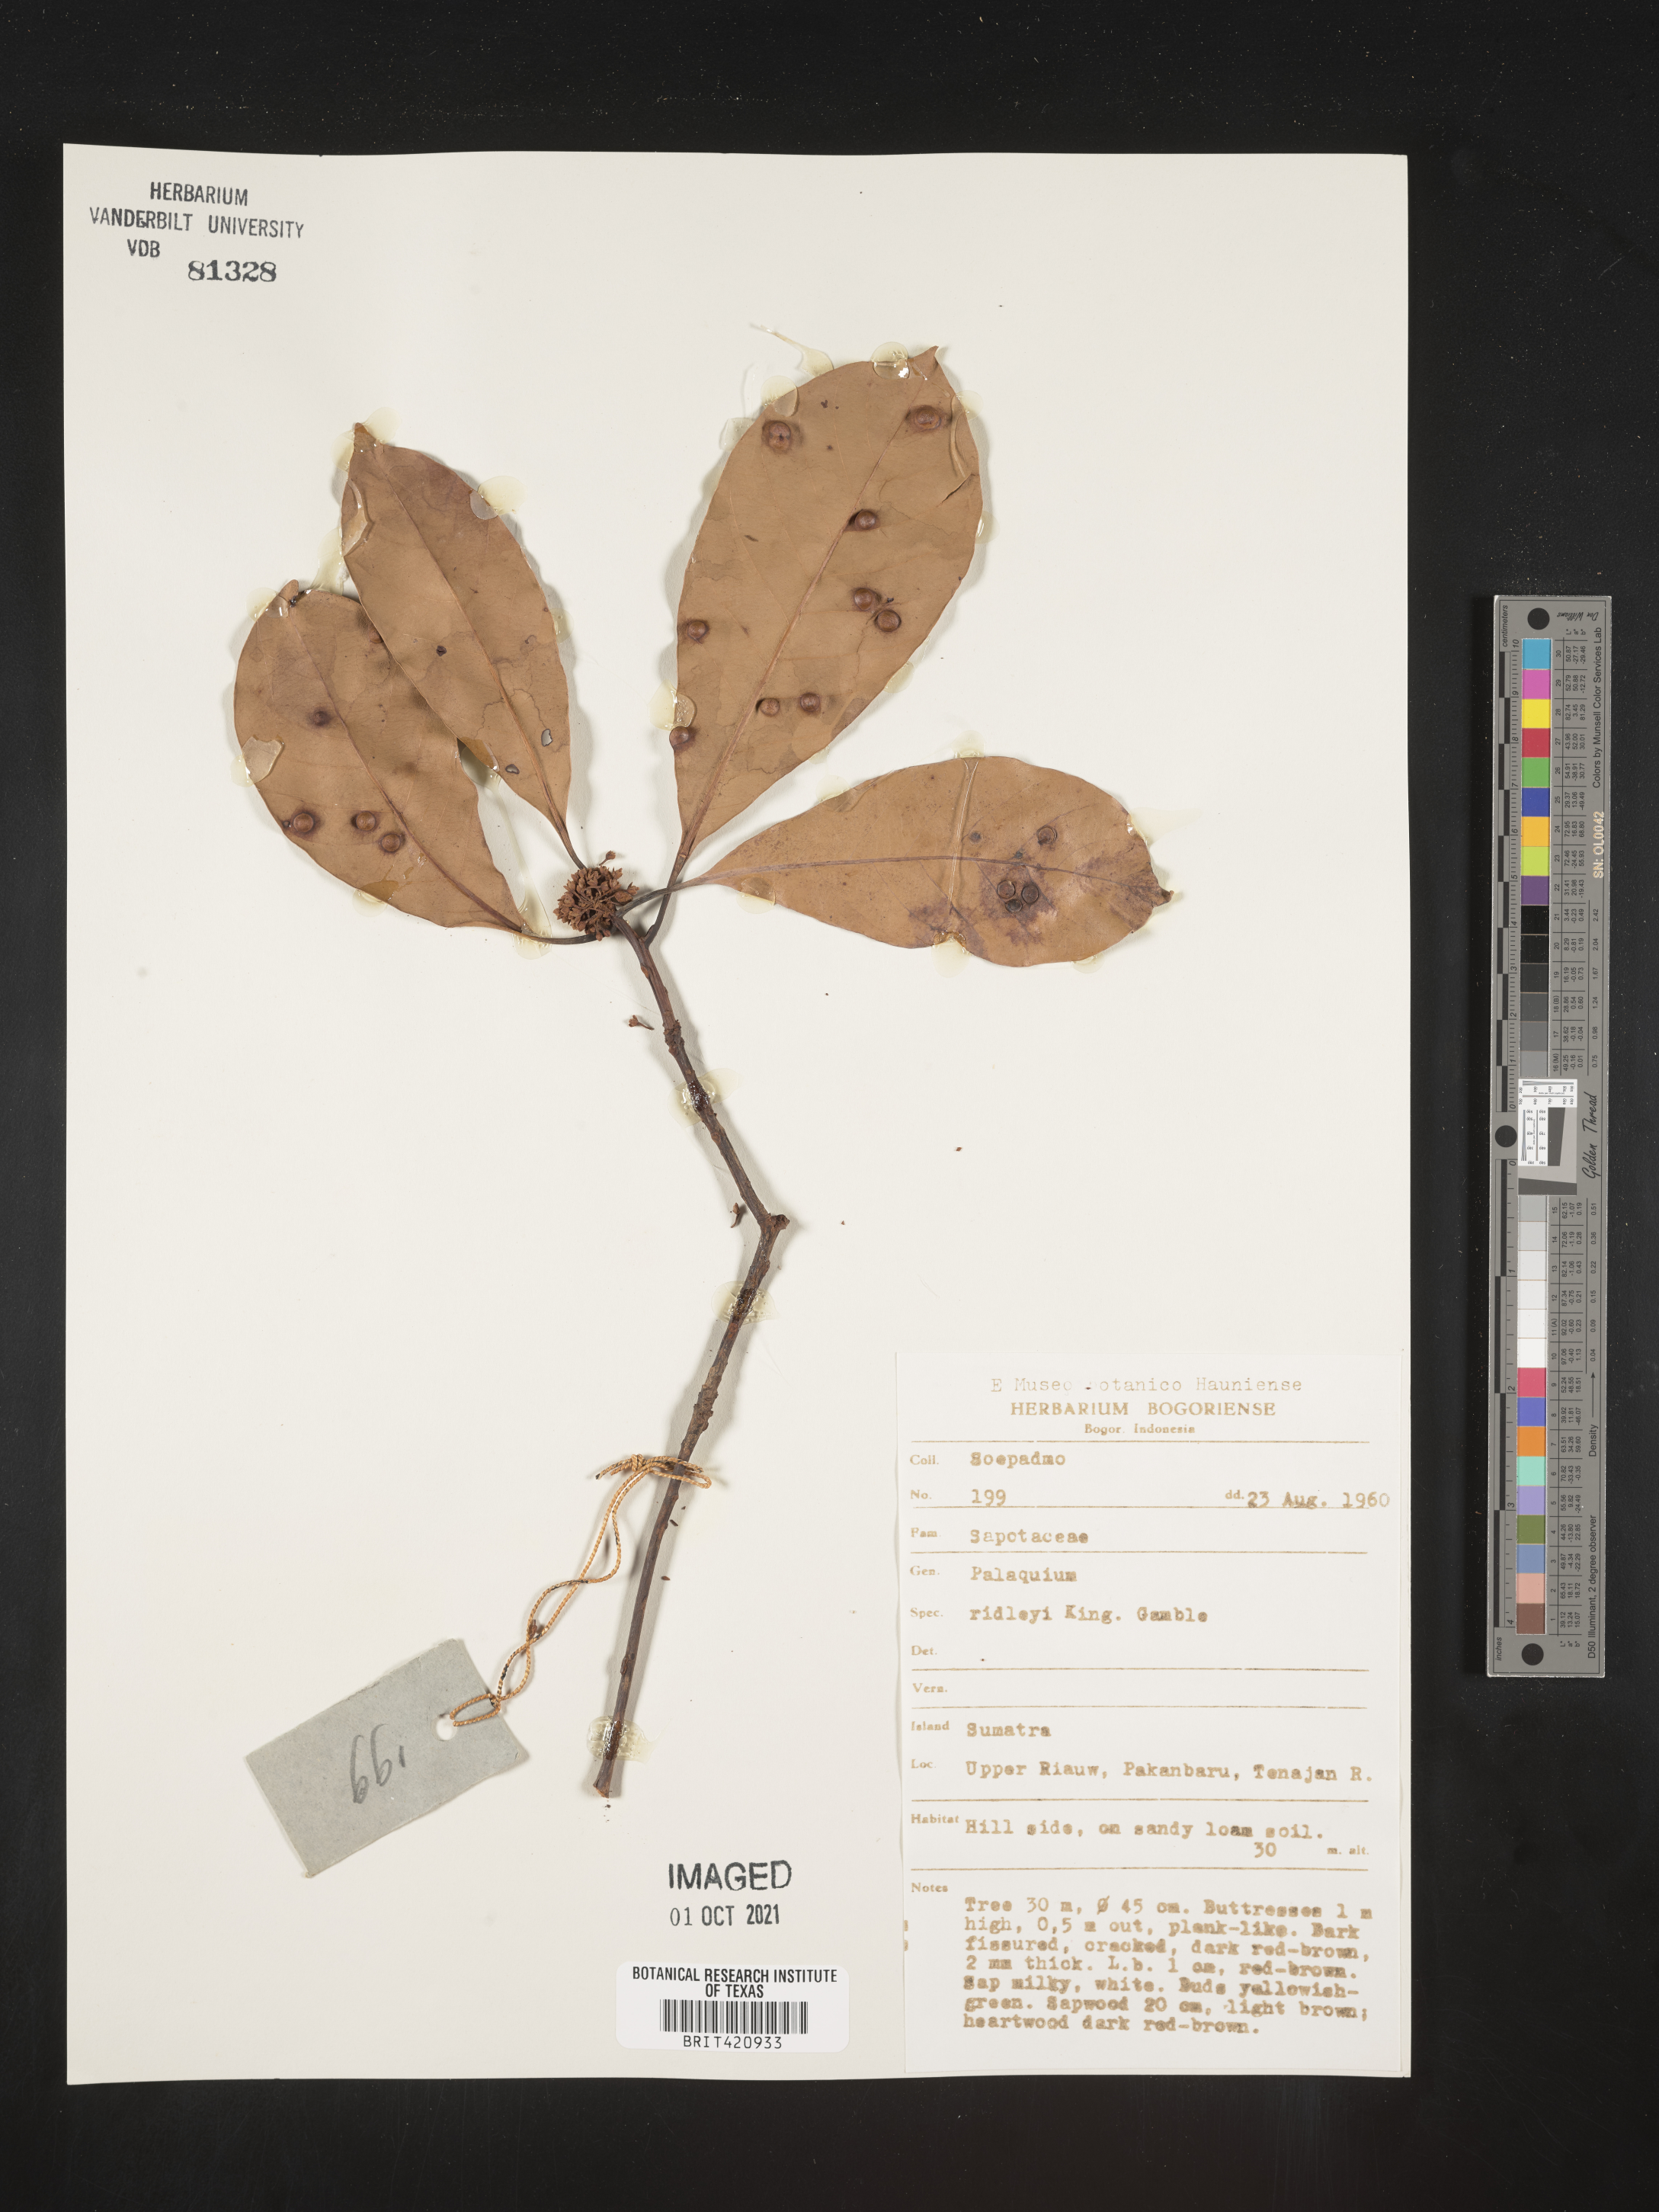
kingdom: Plantae
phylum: Tracheophyta
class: Magnoliopsida
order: Ericales
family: Sapotaceae
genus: Palaquium
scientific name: Palaquium
